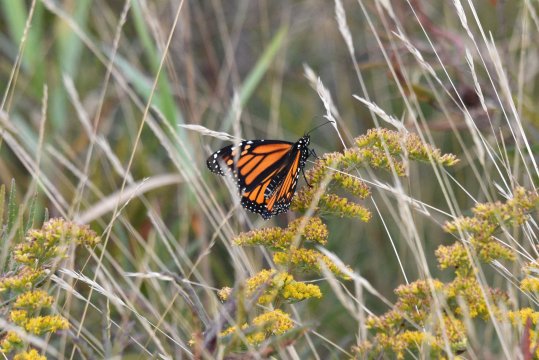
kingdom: Animalia
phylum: Arthropoda
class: Insecta
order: Lepidoptera
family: Nymphalidae
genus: Danaus
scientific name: Danaus plexippus
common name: Monarch
